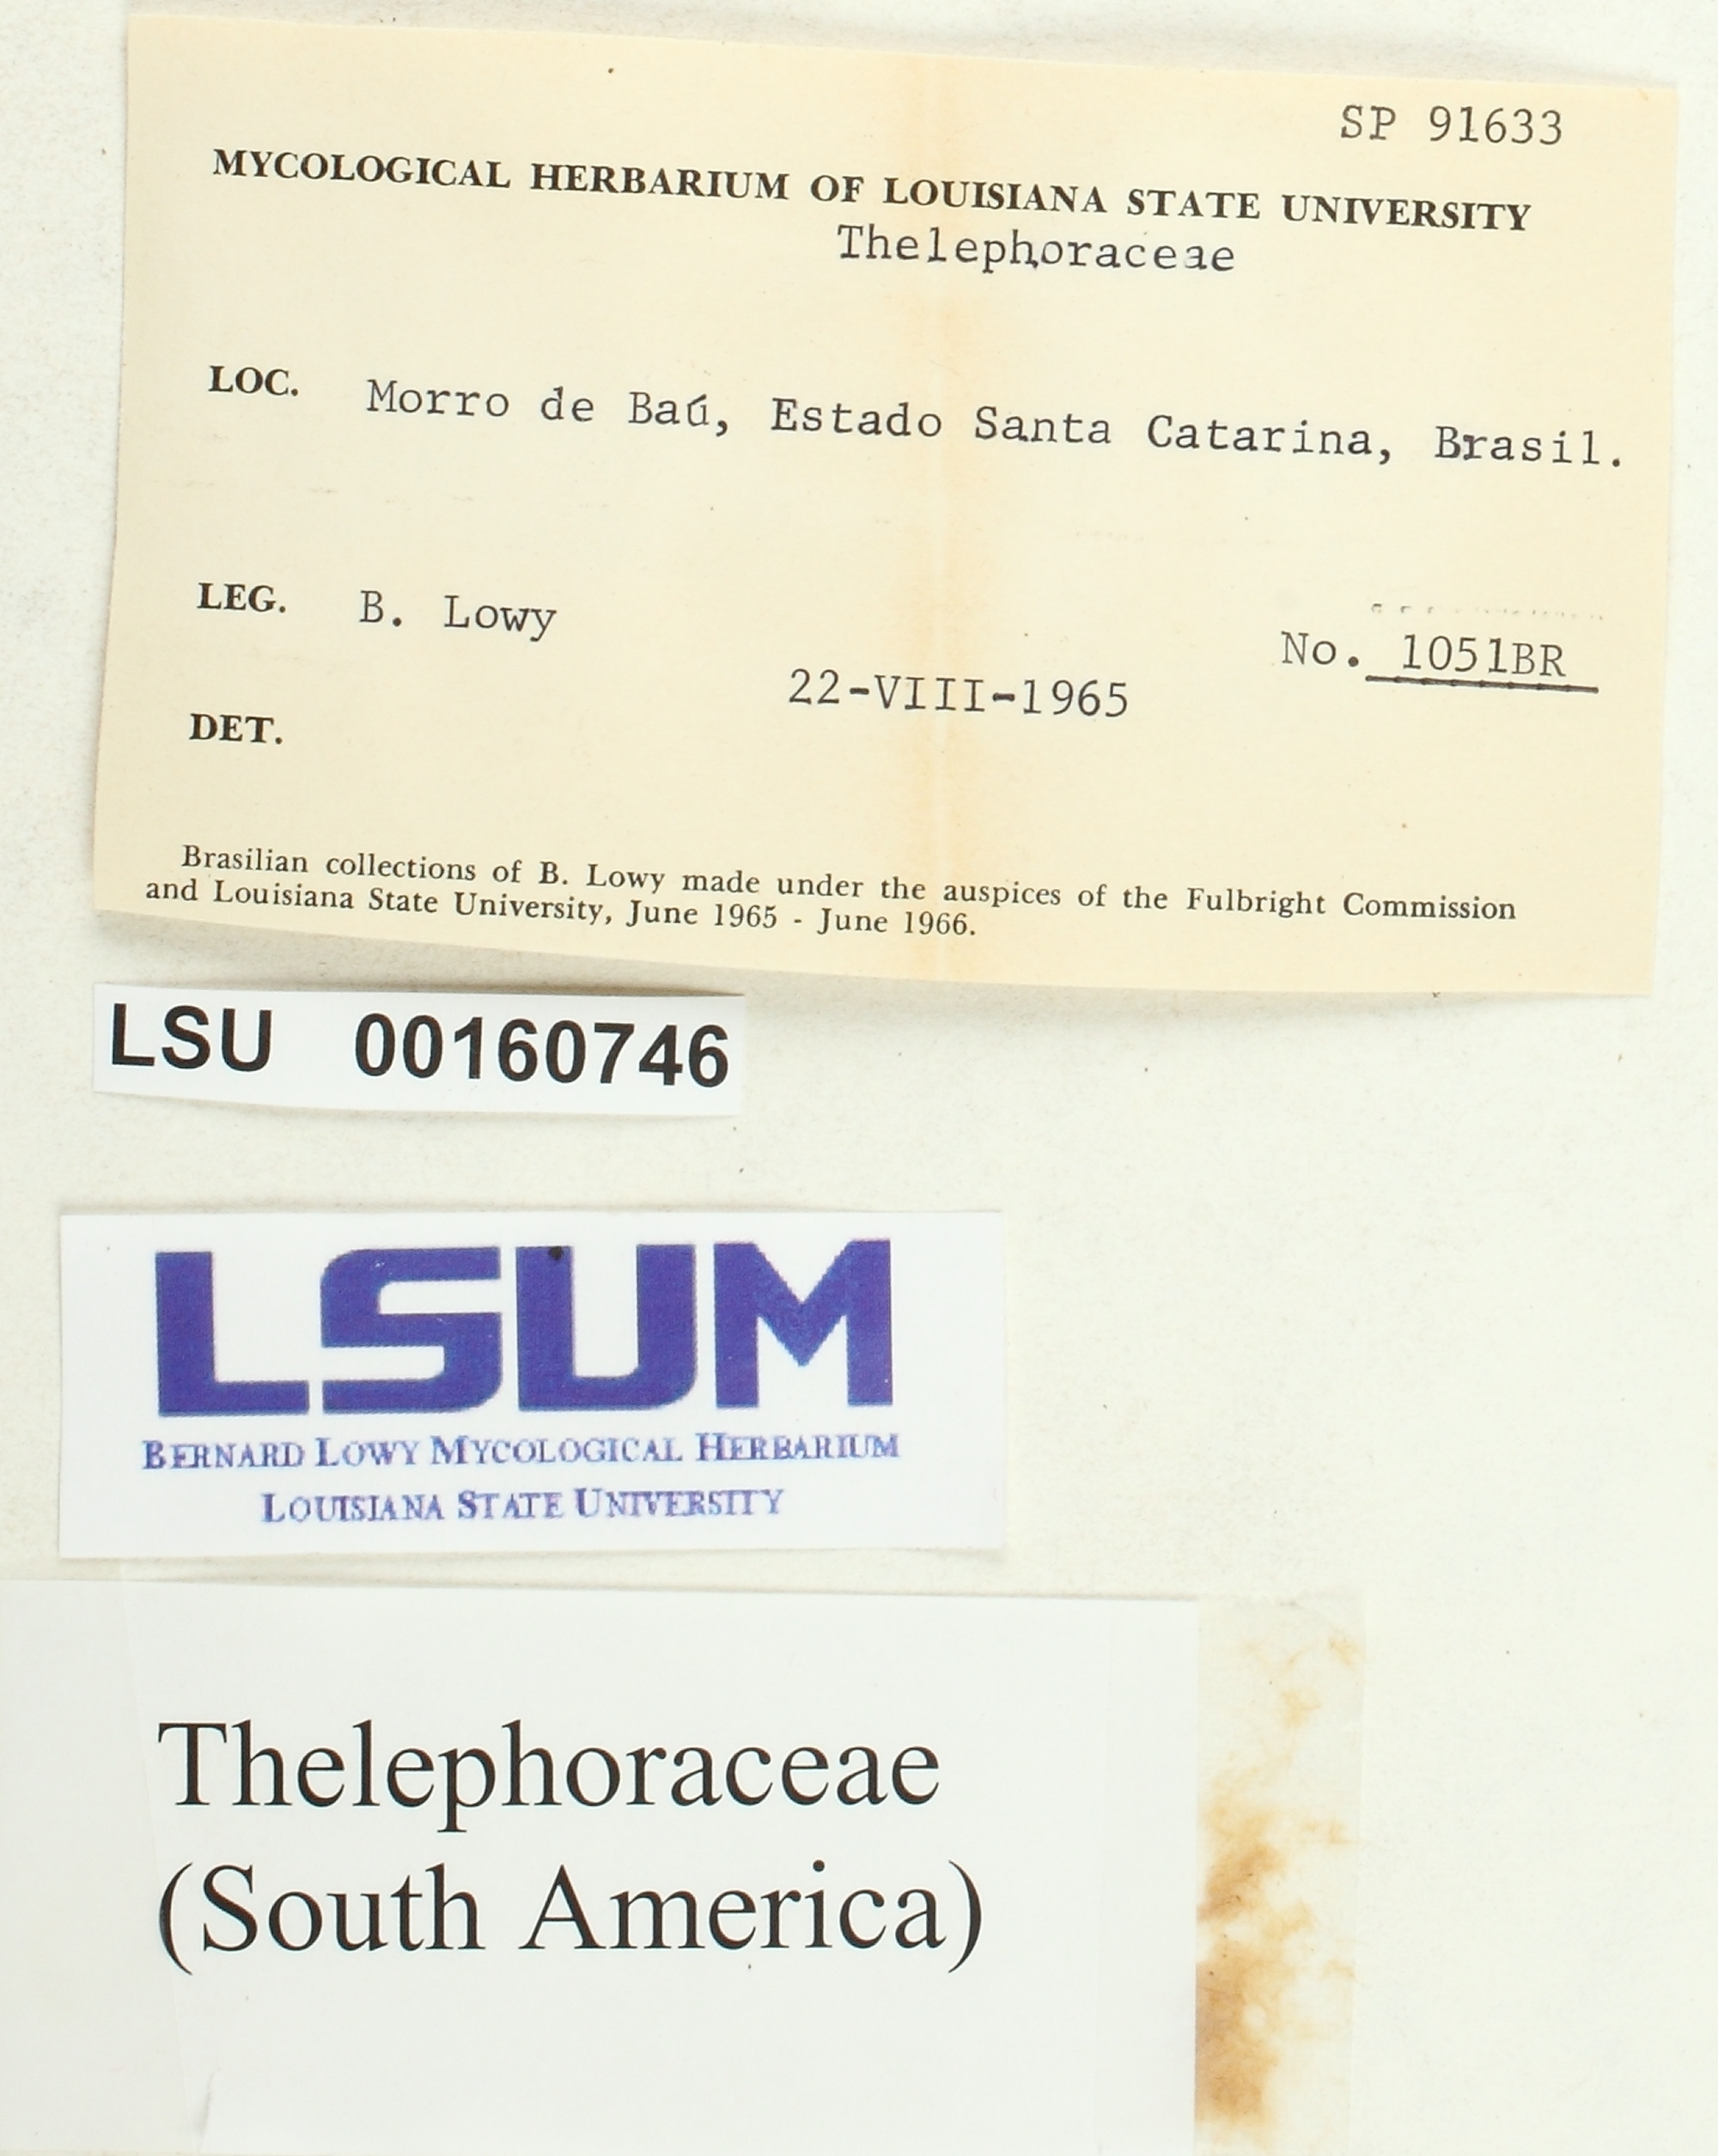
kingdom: Fungi
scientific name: Fungi
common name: Fungi
